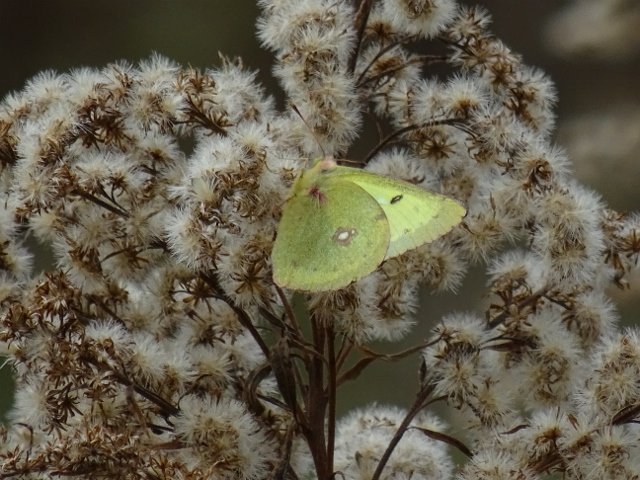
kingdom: Animalia
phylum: Arthropoda
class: Insecta
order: Lepidoptera
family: Pieridae
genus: Colias
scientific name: Colias philodice
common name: Clouded Sulphur
